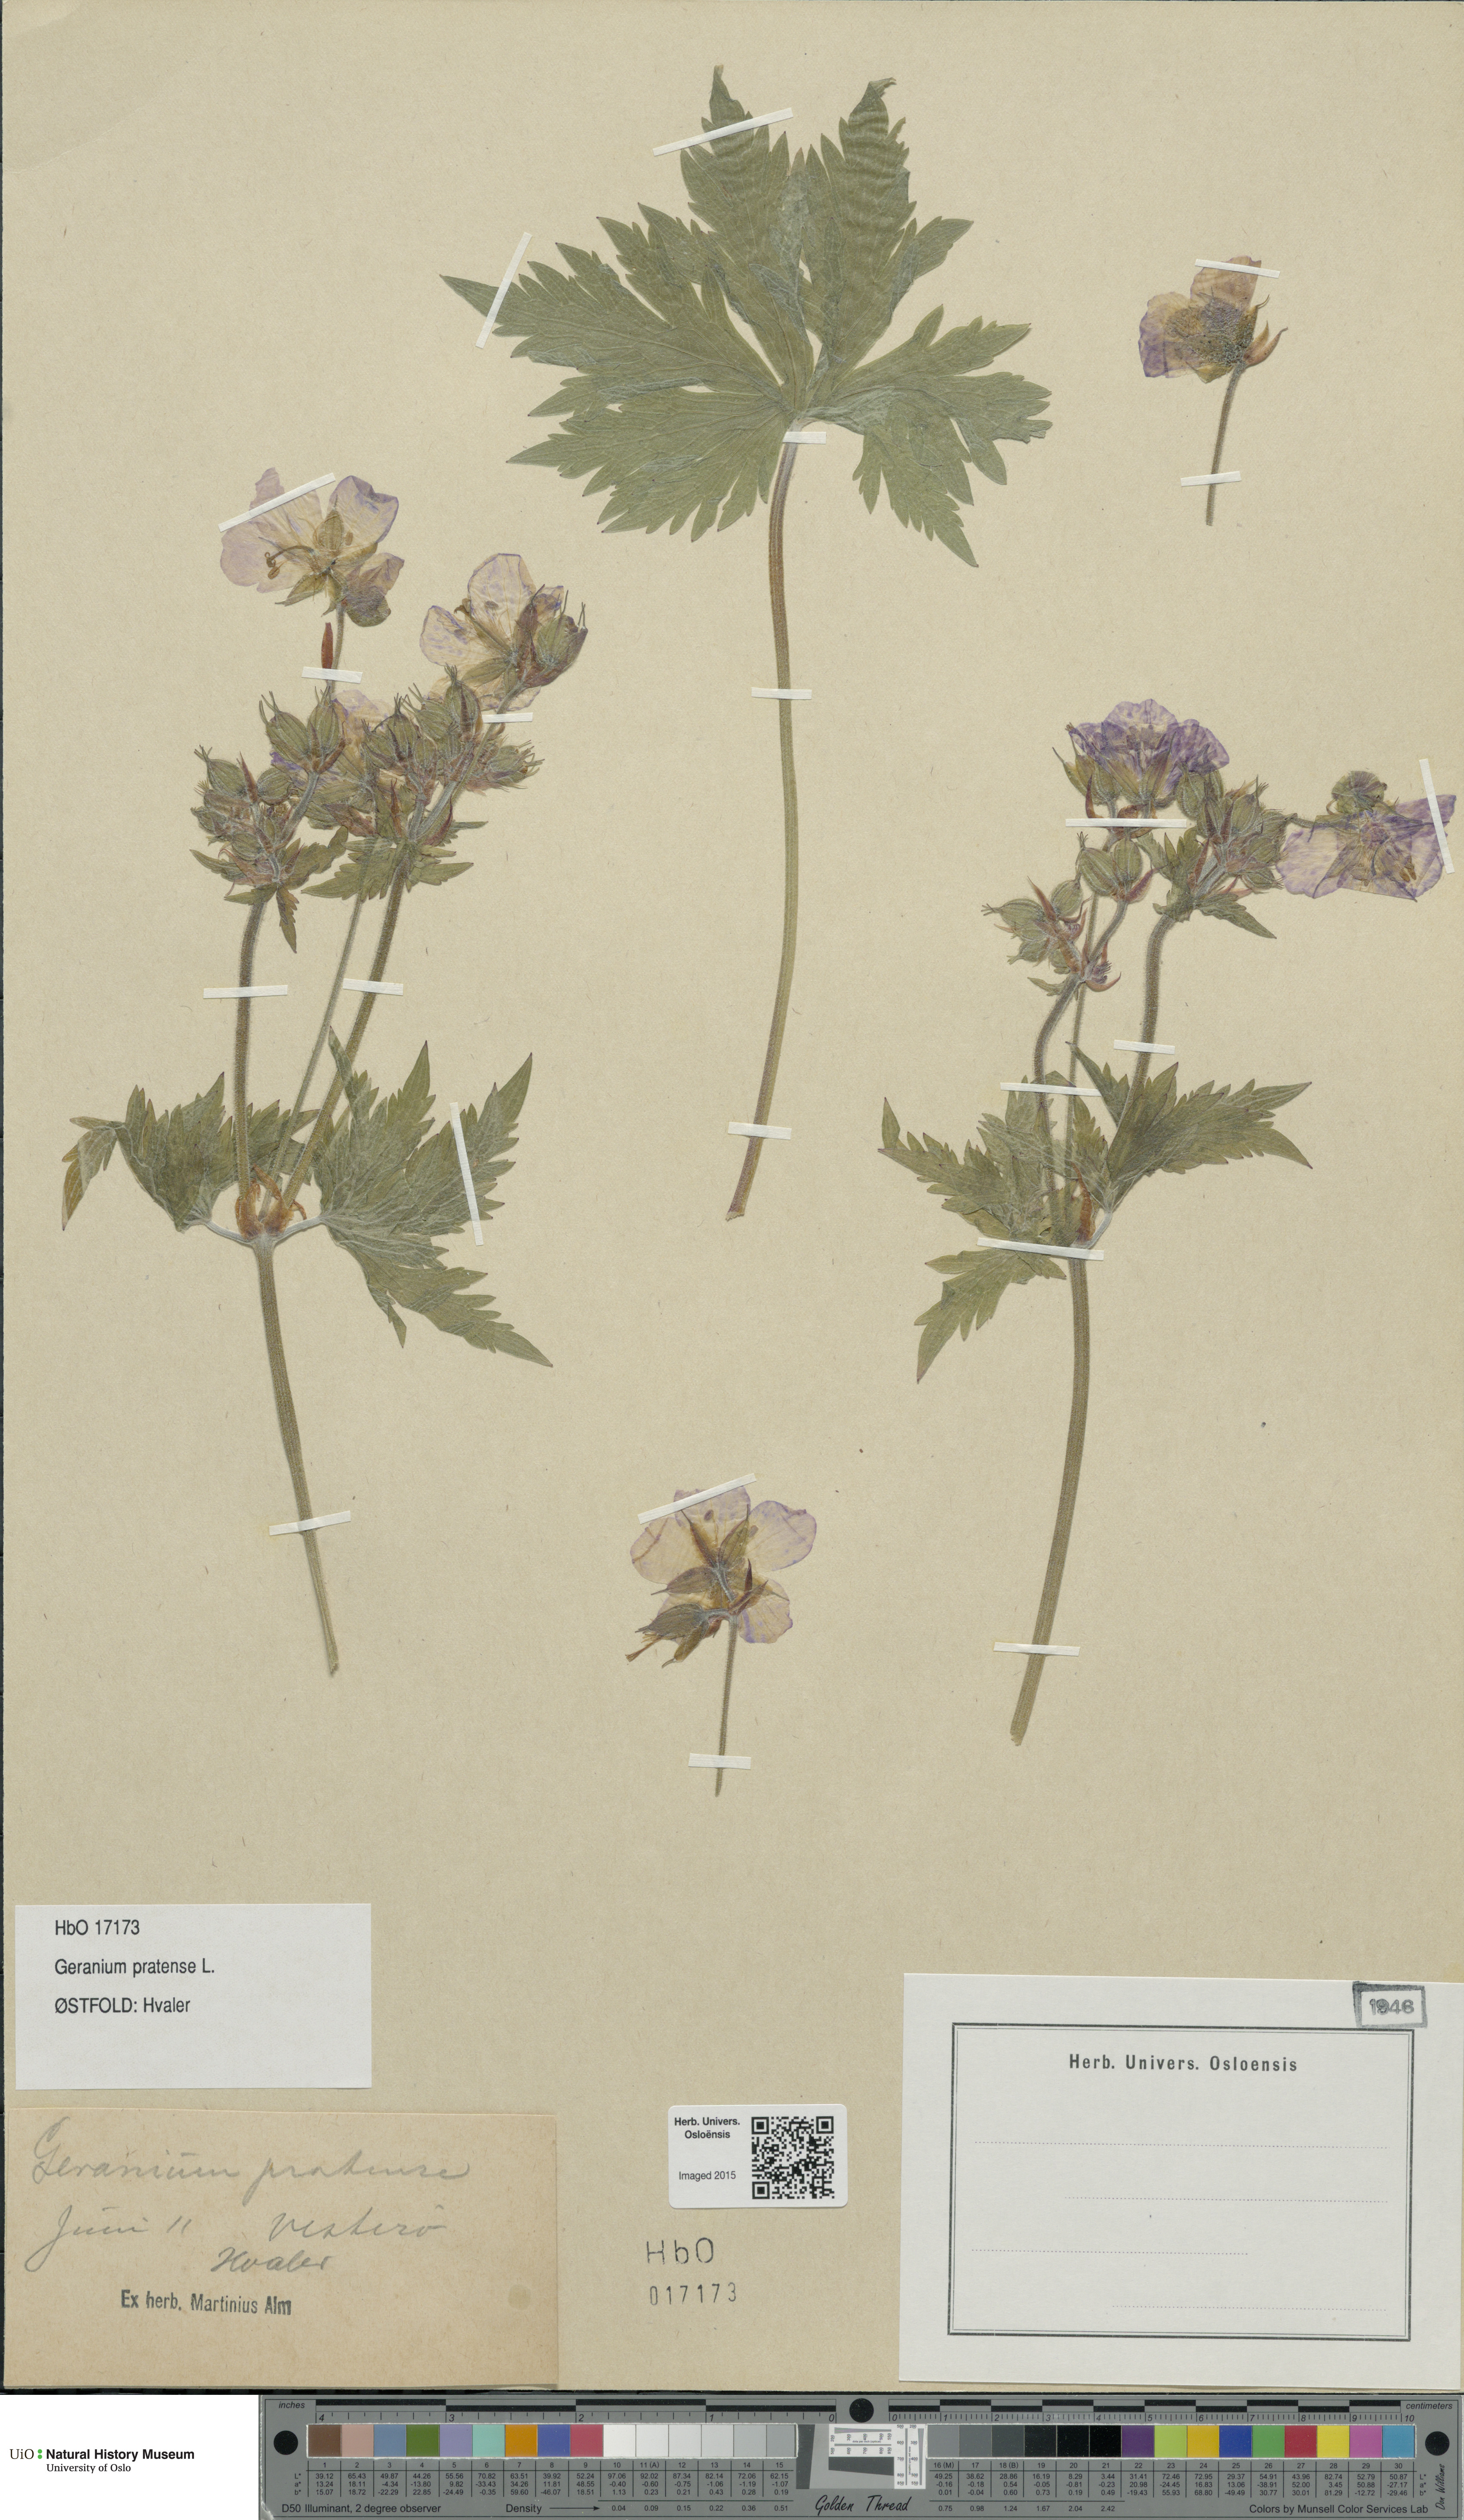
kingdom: Plantae
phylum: Tracheophyta
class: Magnoliopsida
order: Geraniales
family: Geraniaceae
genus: Geranium
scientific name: Geranium pratense
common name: Meadow crane's-bill
